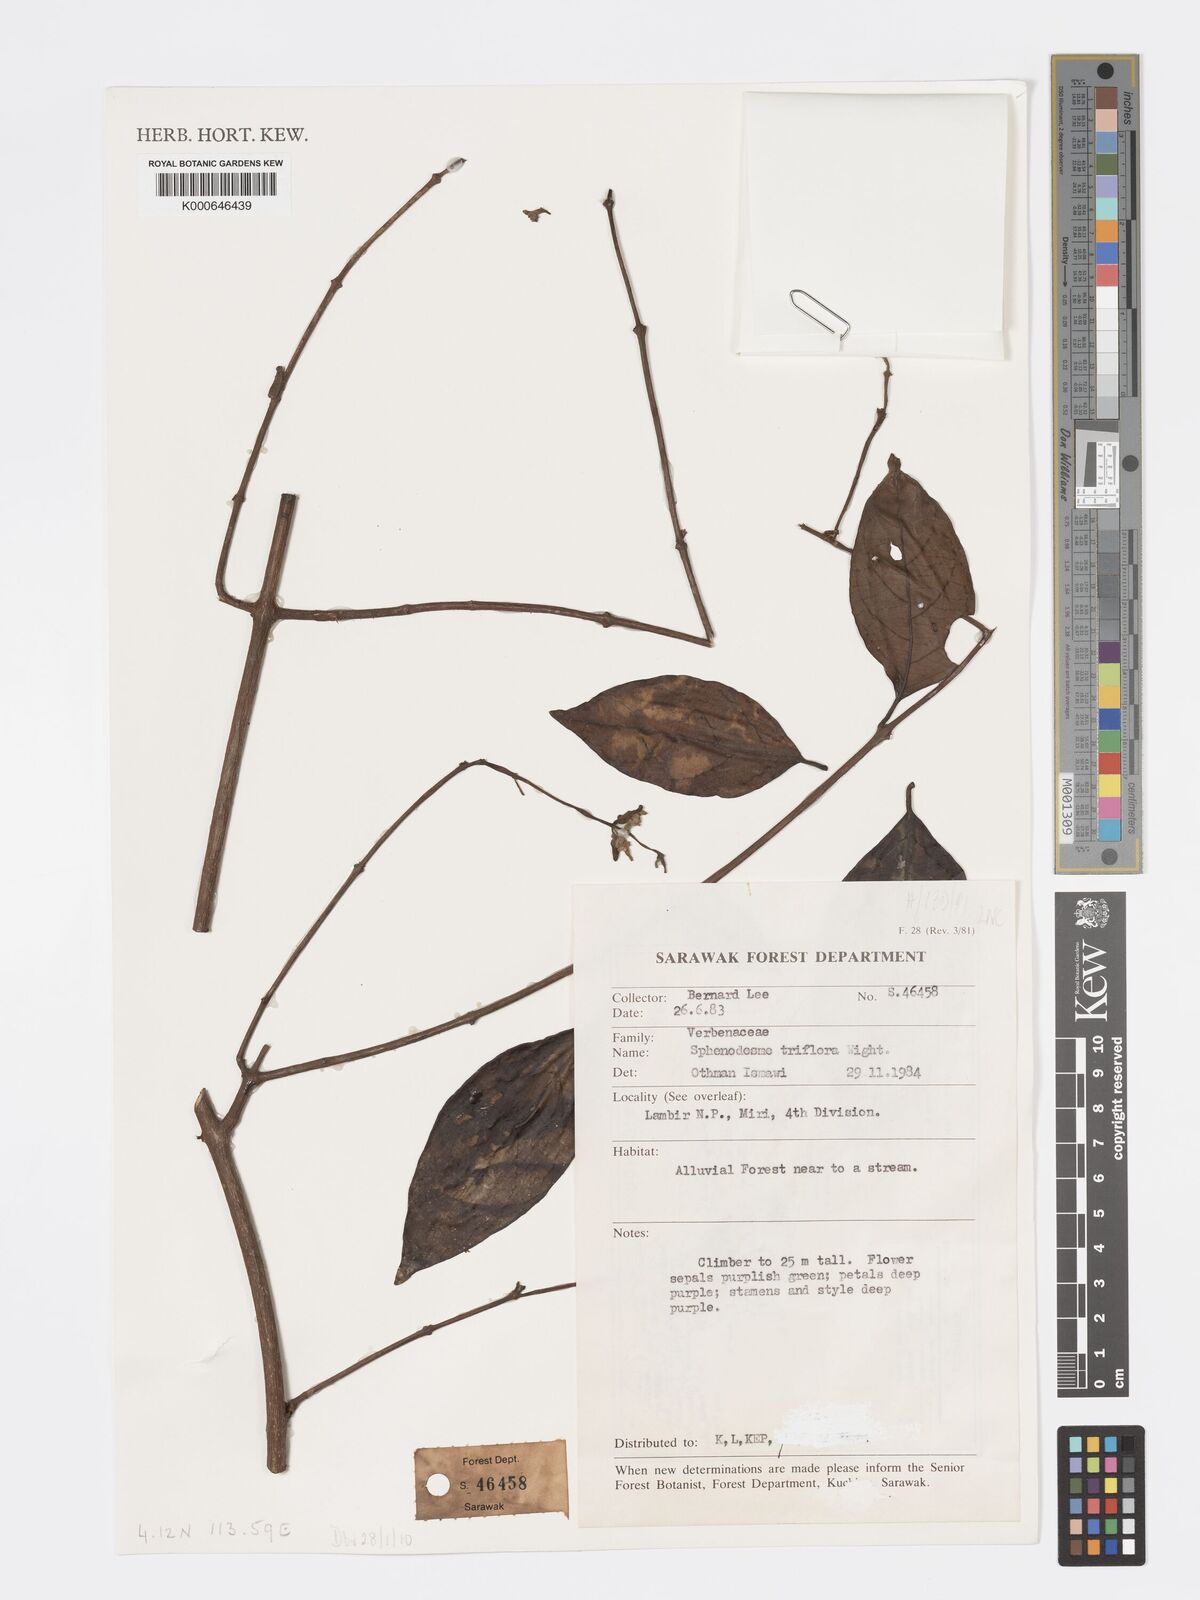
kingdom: Plantae
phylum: Tracheophyta
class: Magnoliopsida
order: Lamiales
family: Lamiaceae
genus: Sphenodesme
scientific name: Sphenodesme triflora
